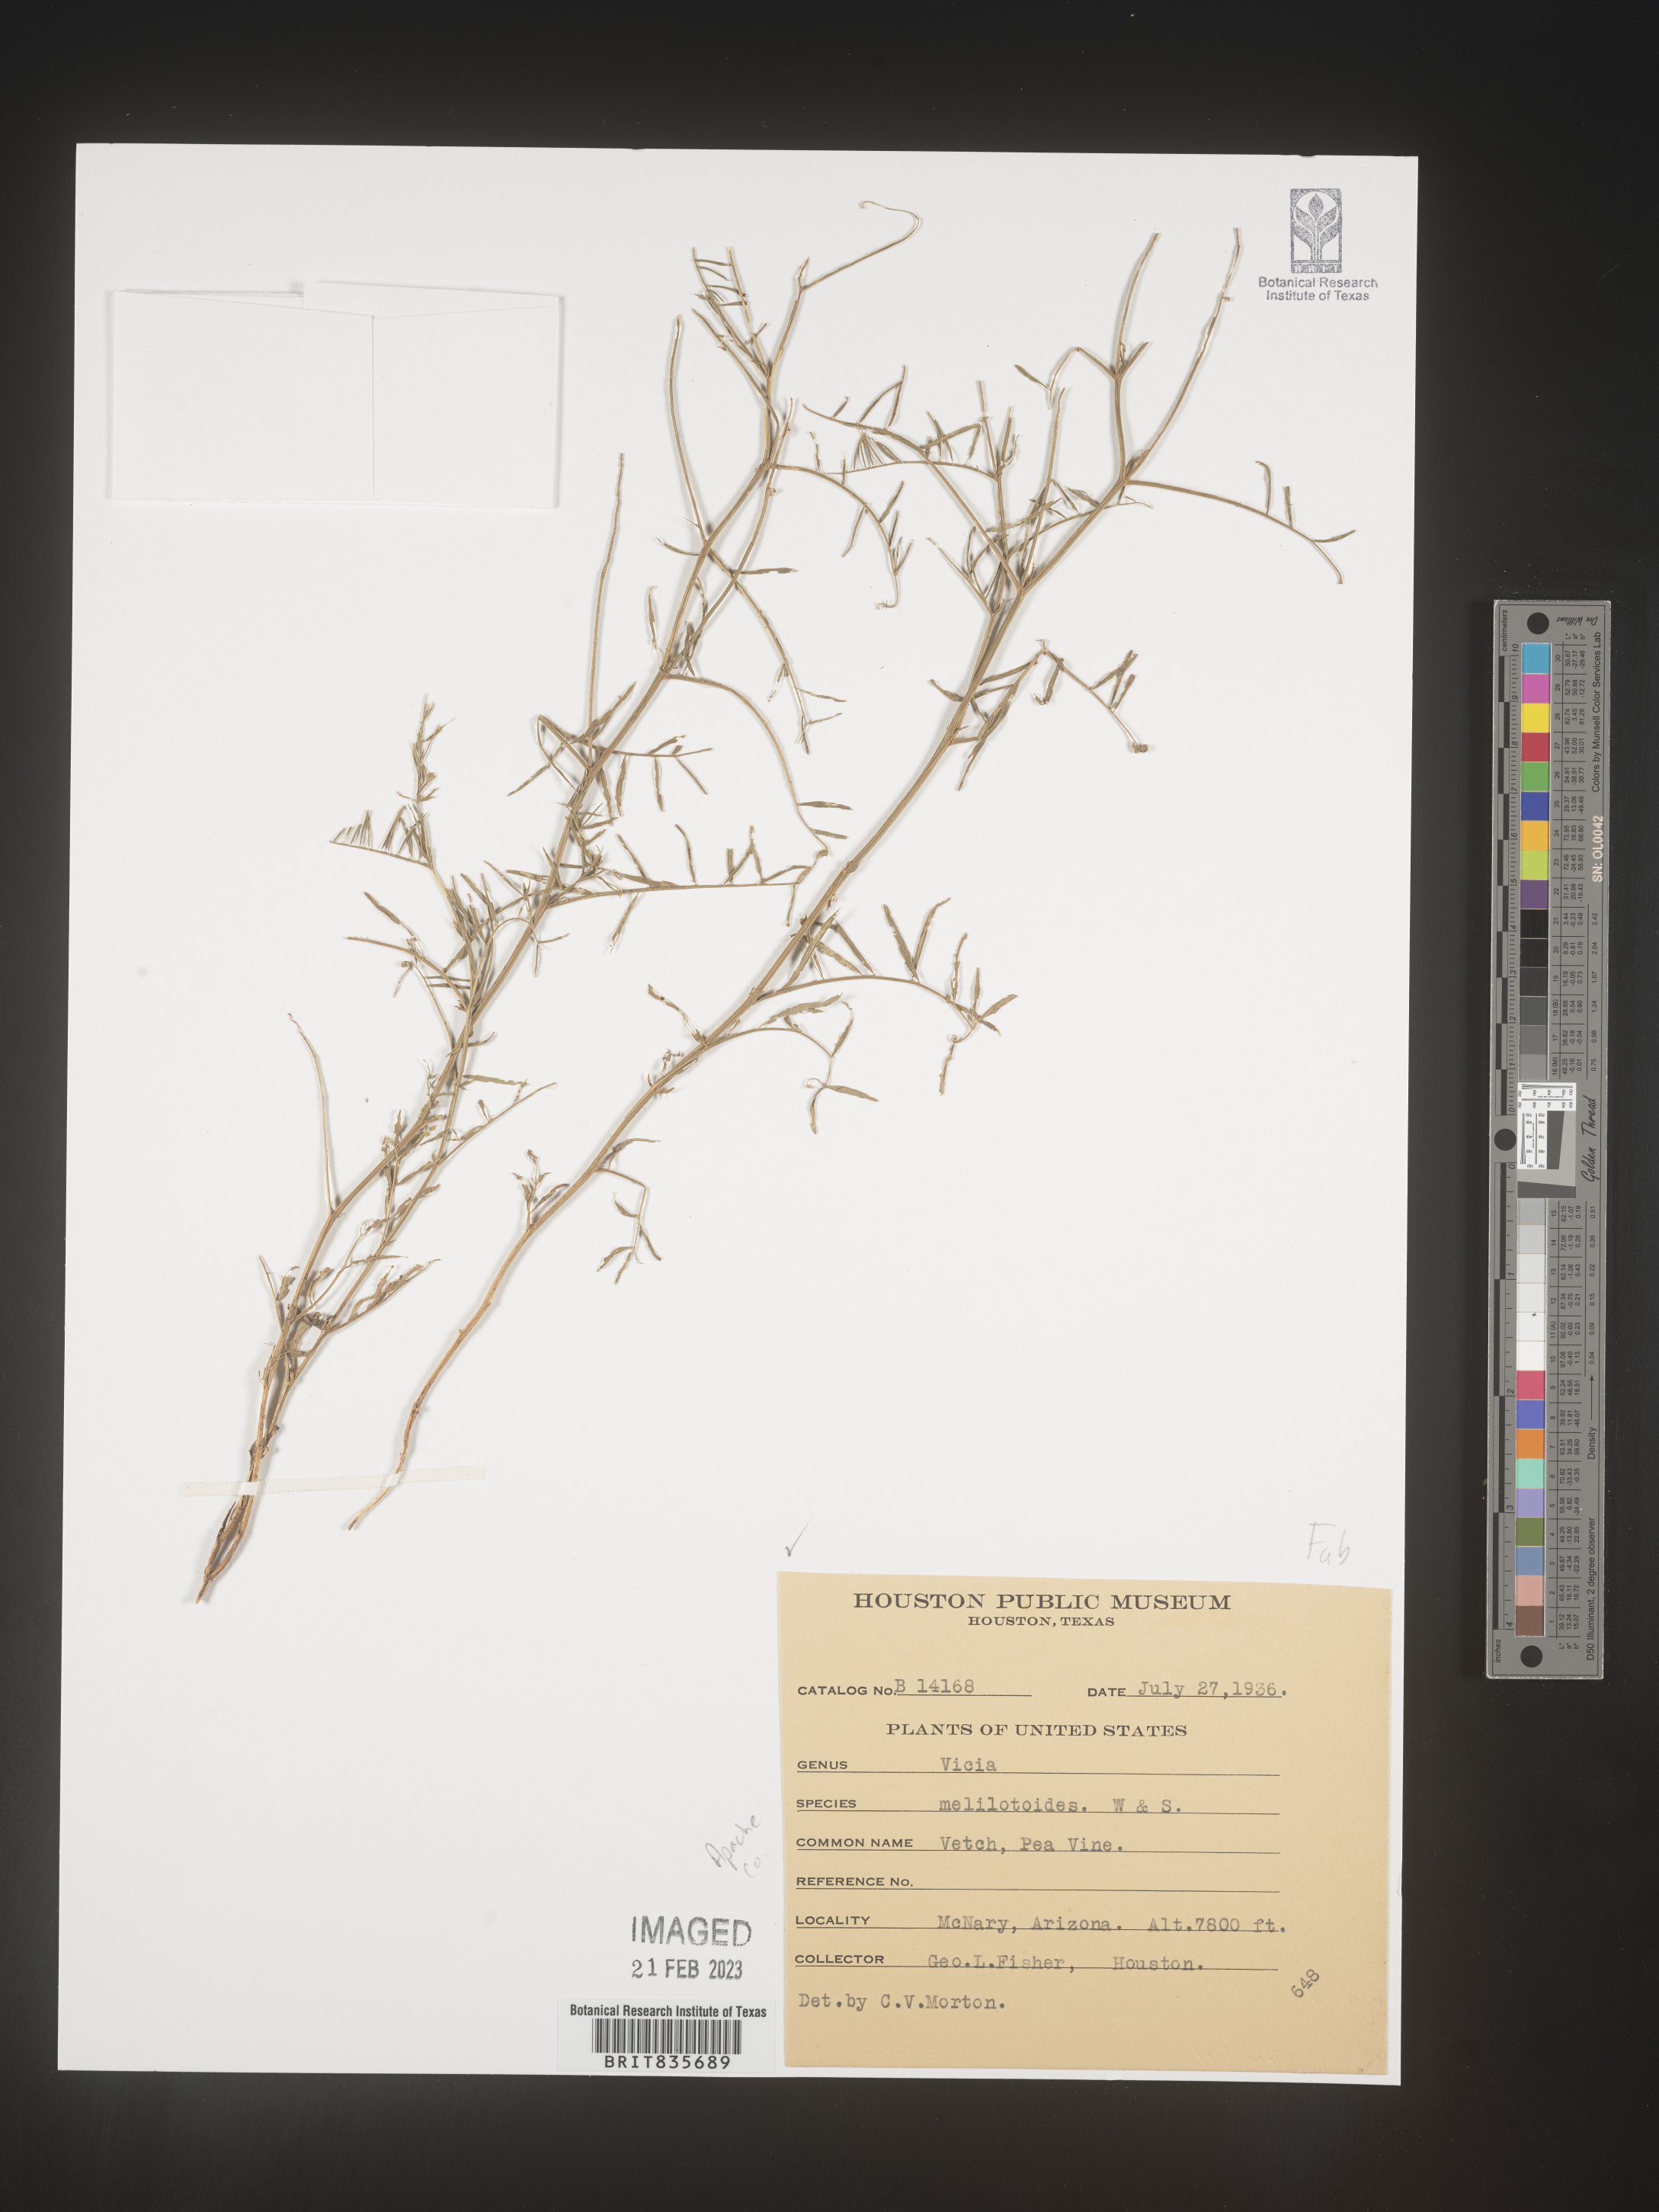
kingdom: Plantae
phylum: Tracheophyta
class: Magnoliopsida
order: Fabales
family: Fabaceae
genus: Vicia
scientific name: Vicia pulchella
